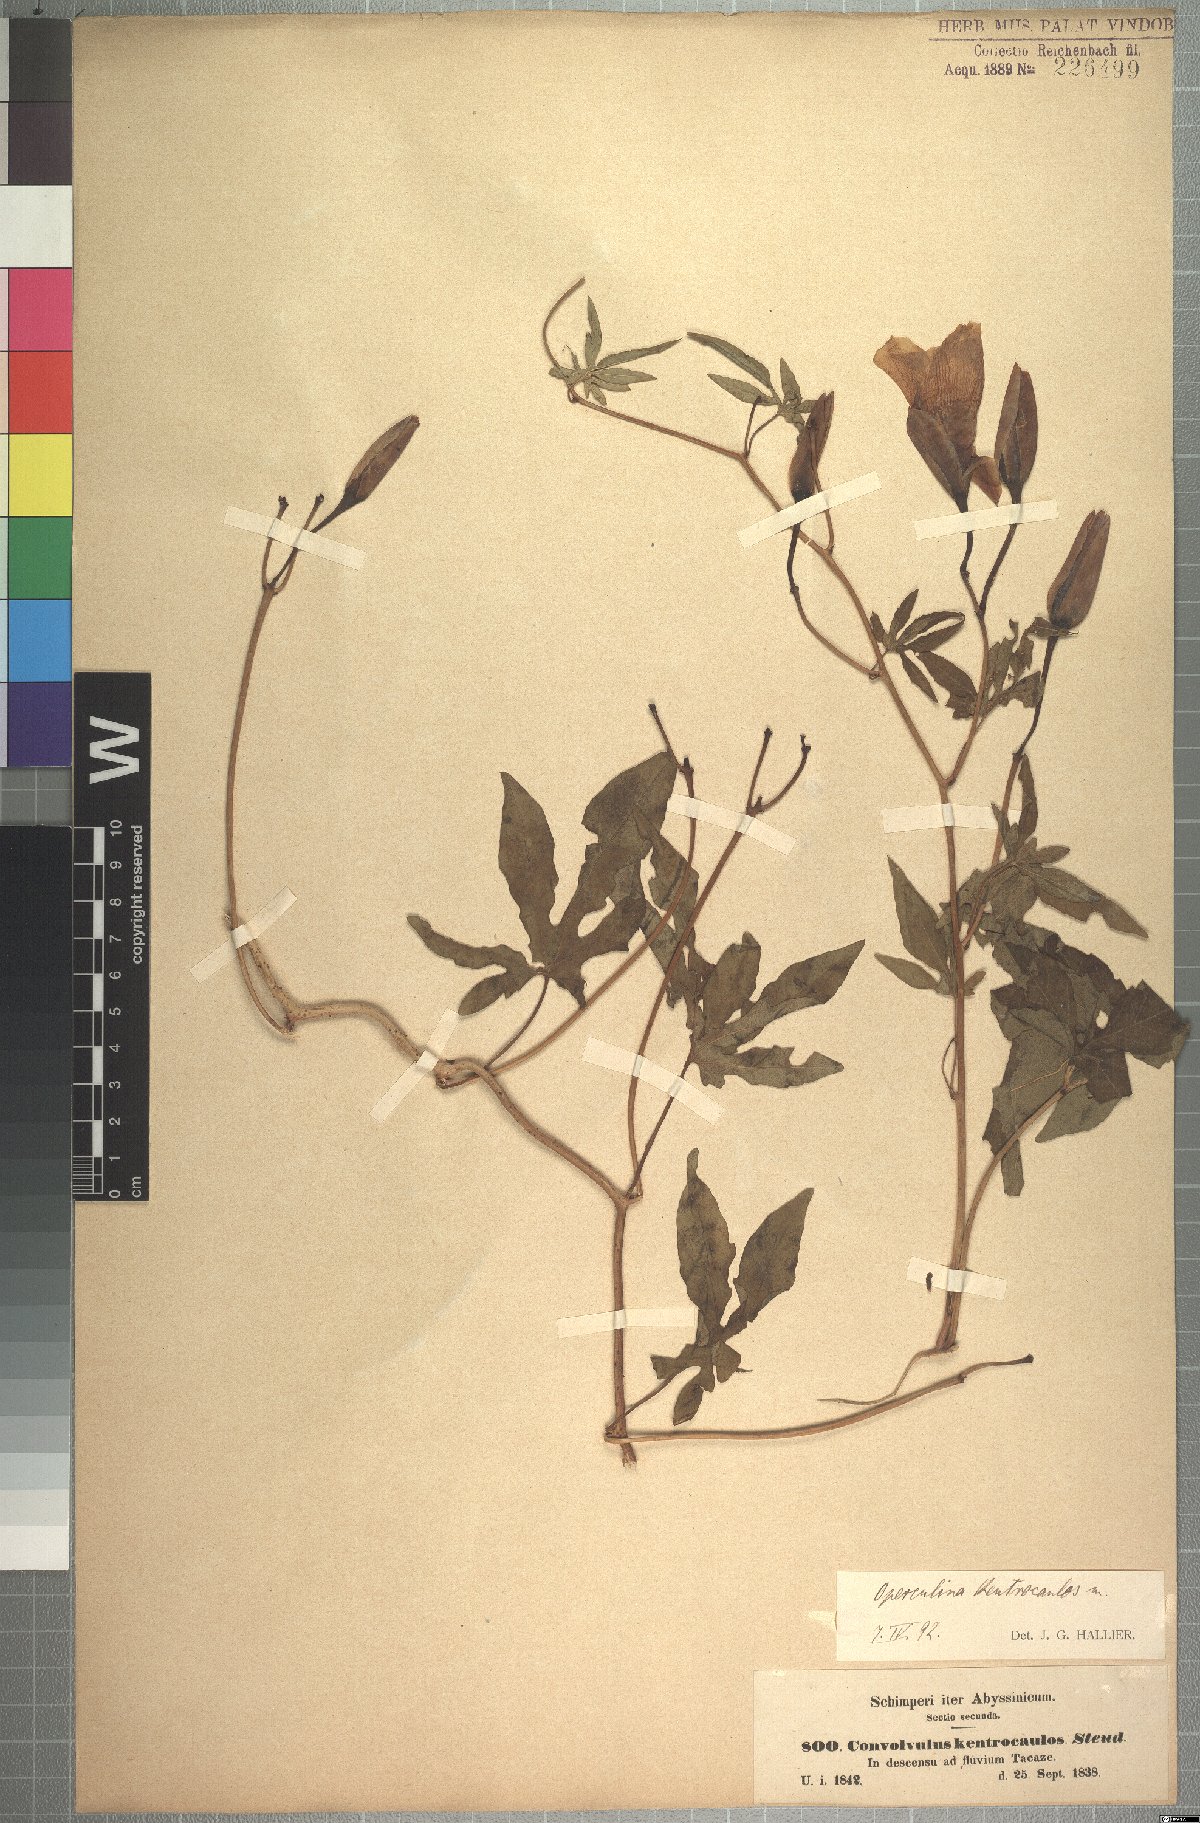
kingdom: Plantae
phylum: Tracheophyta
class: Magnoliopsida
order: Solanales
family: Convolvulaceae
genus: Distimake
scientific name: Distimake kentrocaulos
